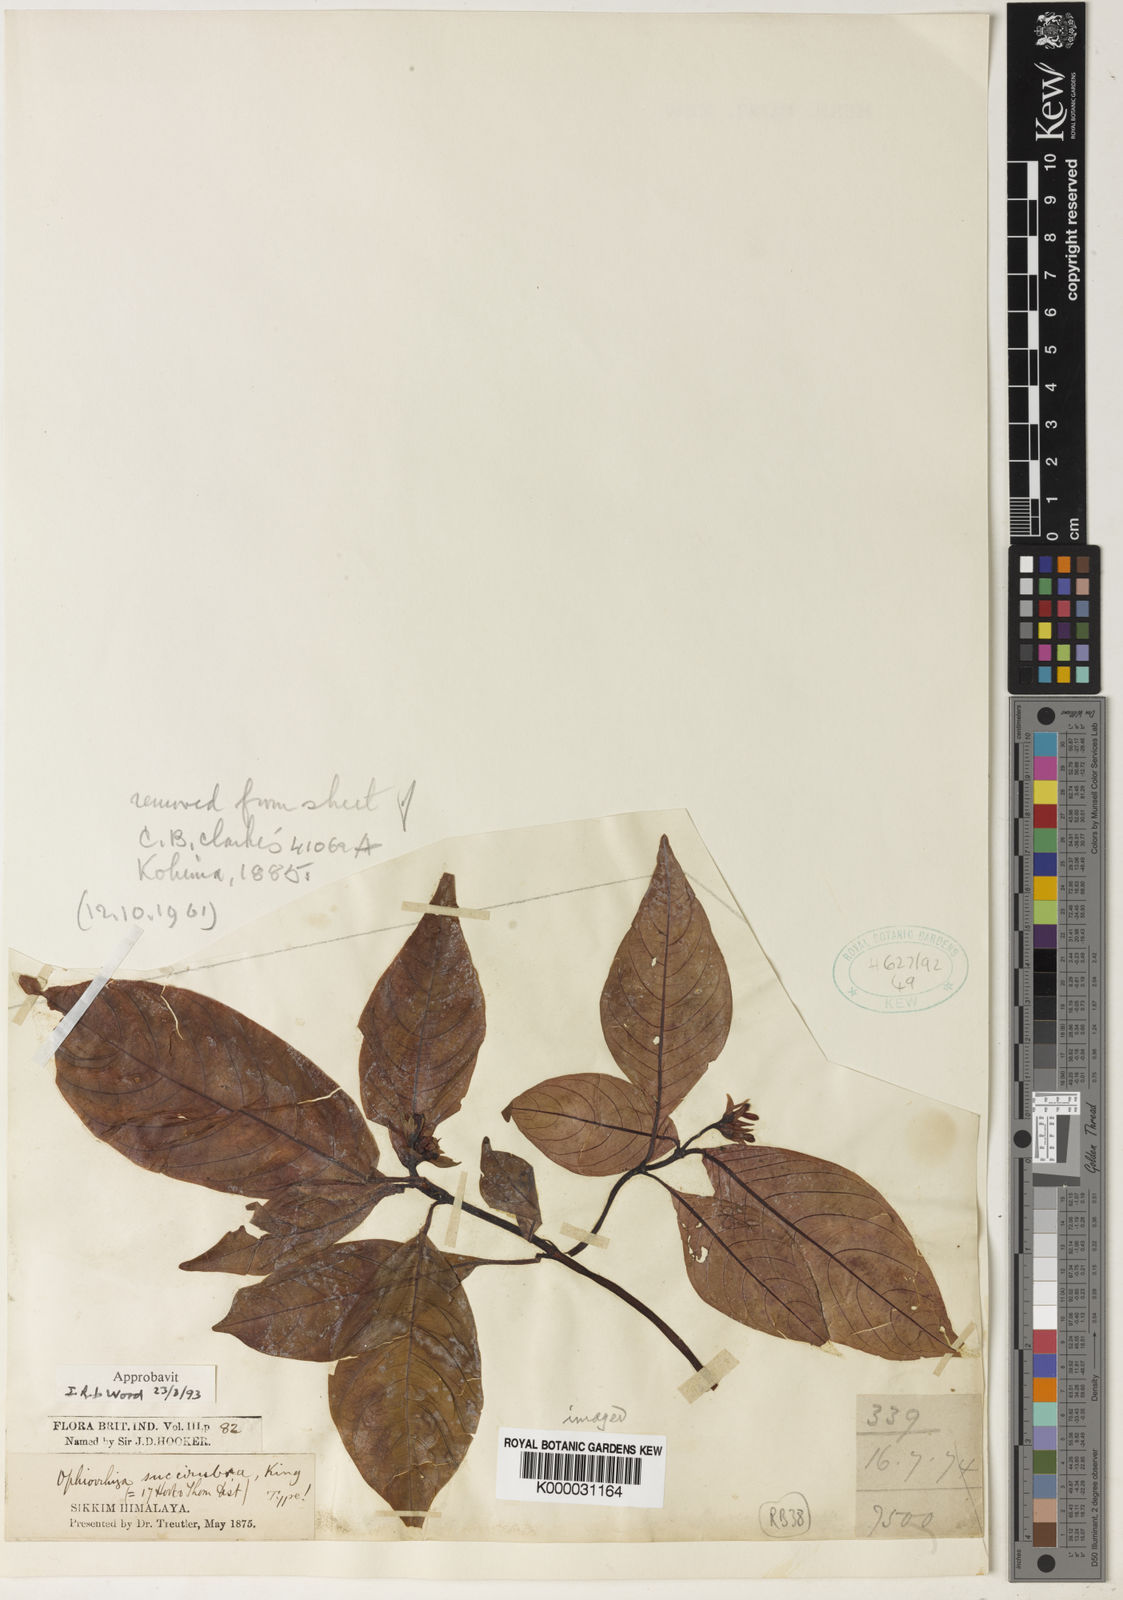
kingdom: Plantae
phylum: Tracheophyta
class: Magnoliopsida
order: Gentianales
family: Rubiaceae
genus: Ophiorrhiza
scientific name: Ophiorrhiza
